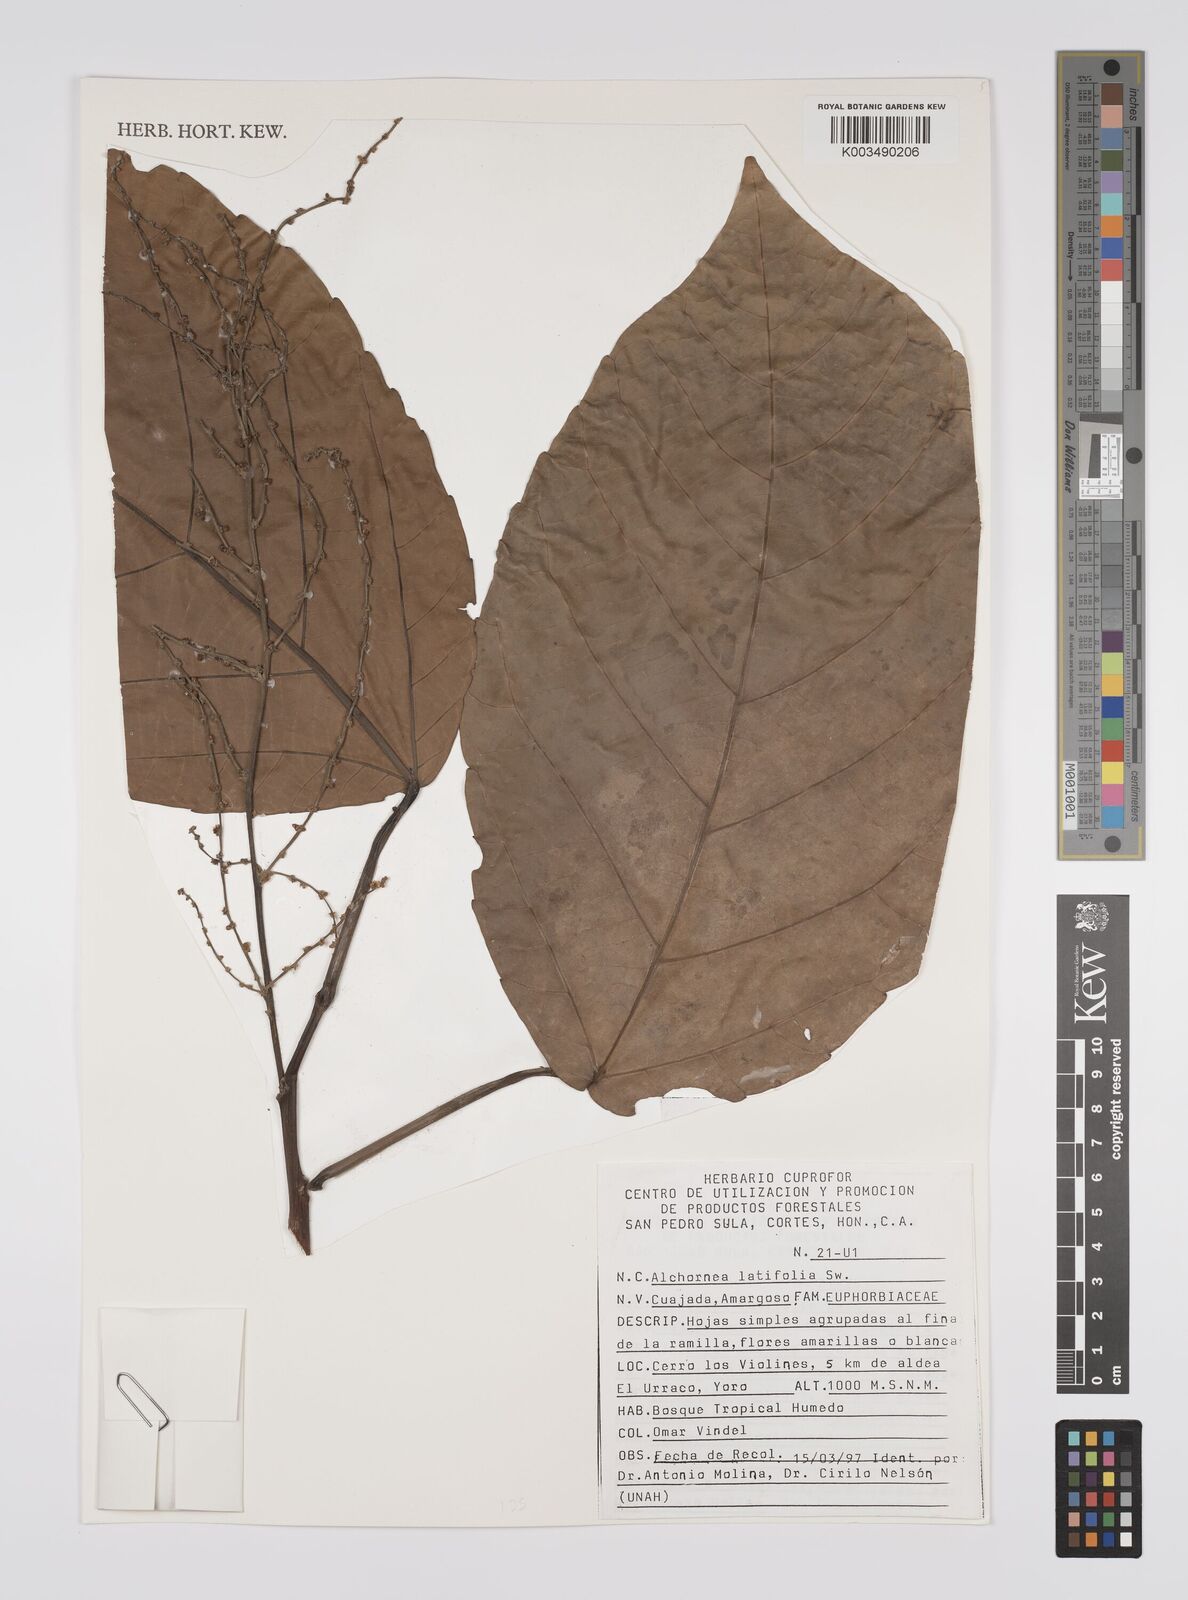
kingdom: Plantae
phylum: Tracheophyta
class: Magnoliopsida
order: Malpighiales
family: Euphorbiaceae
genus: Alchornea
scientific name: Alchornea latifolia
